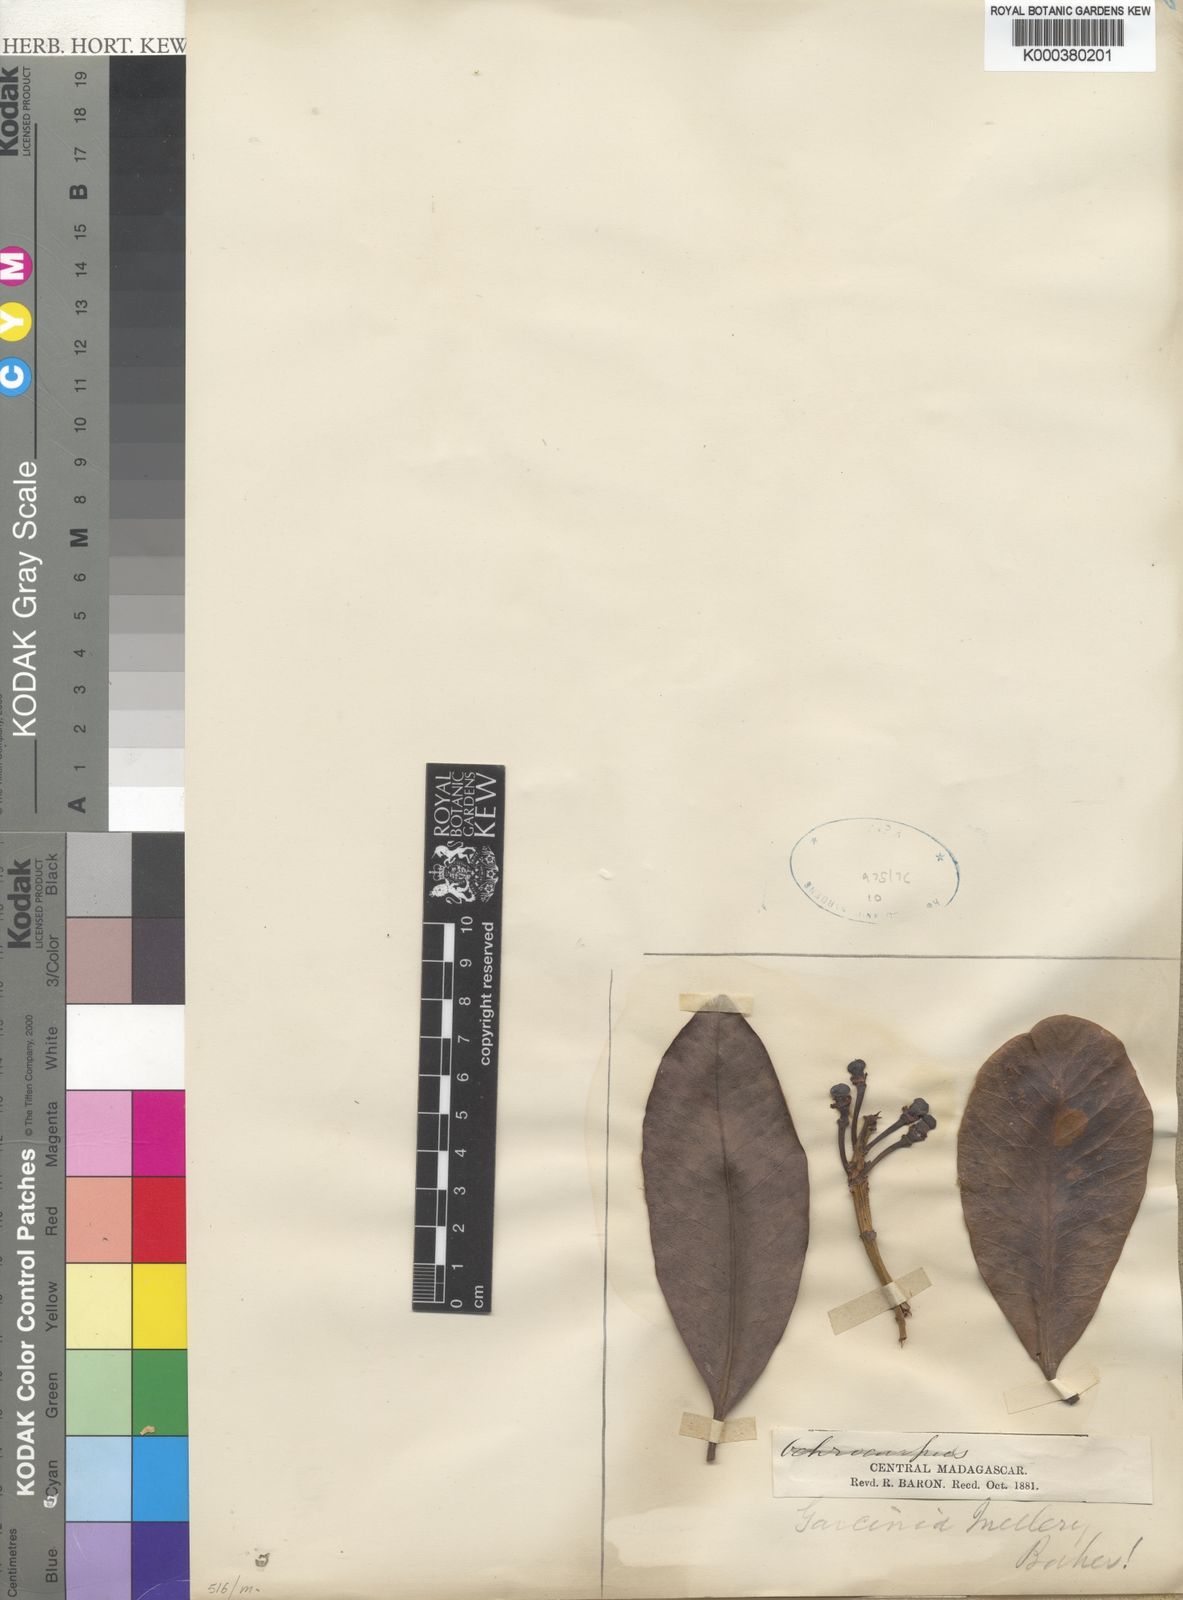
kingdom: Plantae
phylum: Tracheophyta
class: Magnoliopsida
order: Malpighiales
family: Clusiaceae
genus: Garcinia
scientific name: Garcinia goudotiana
